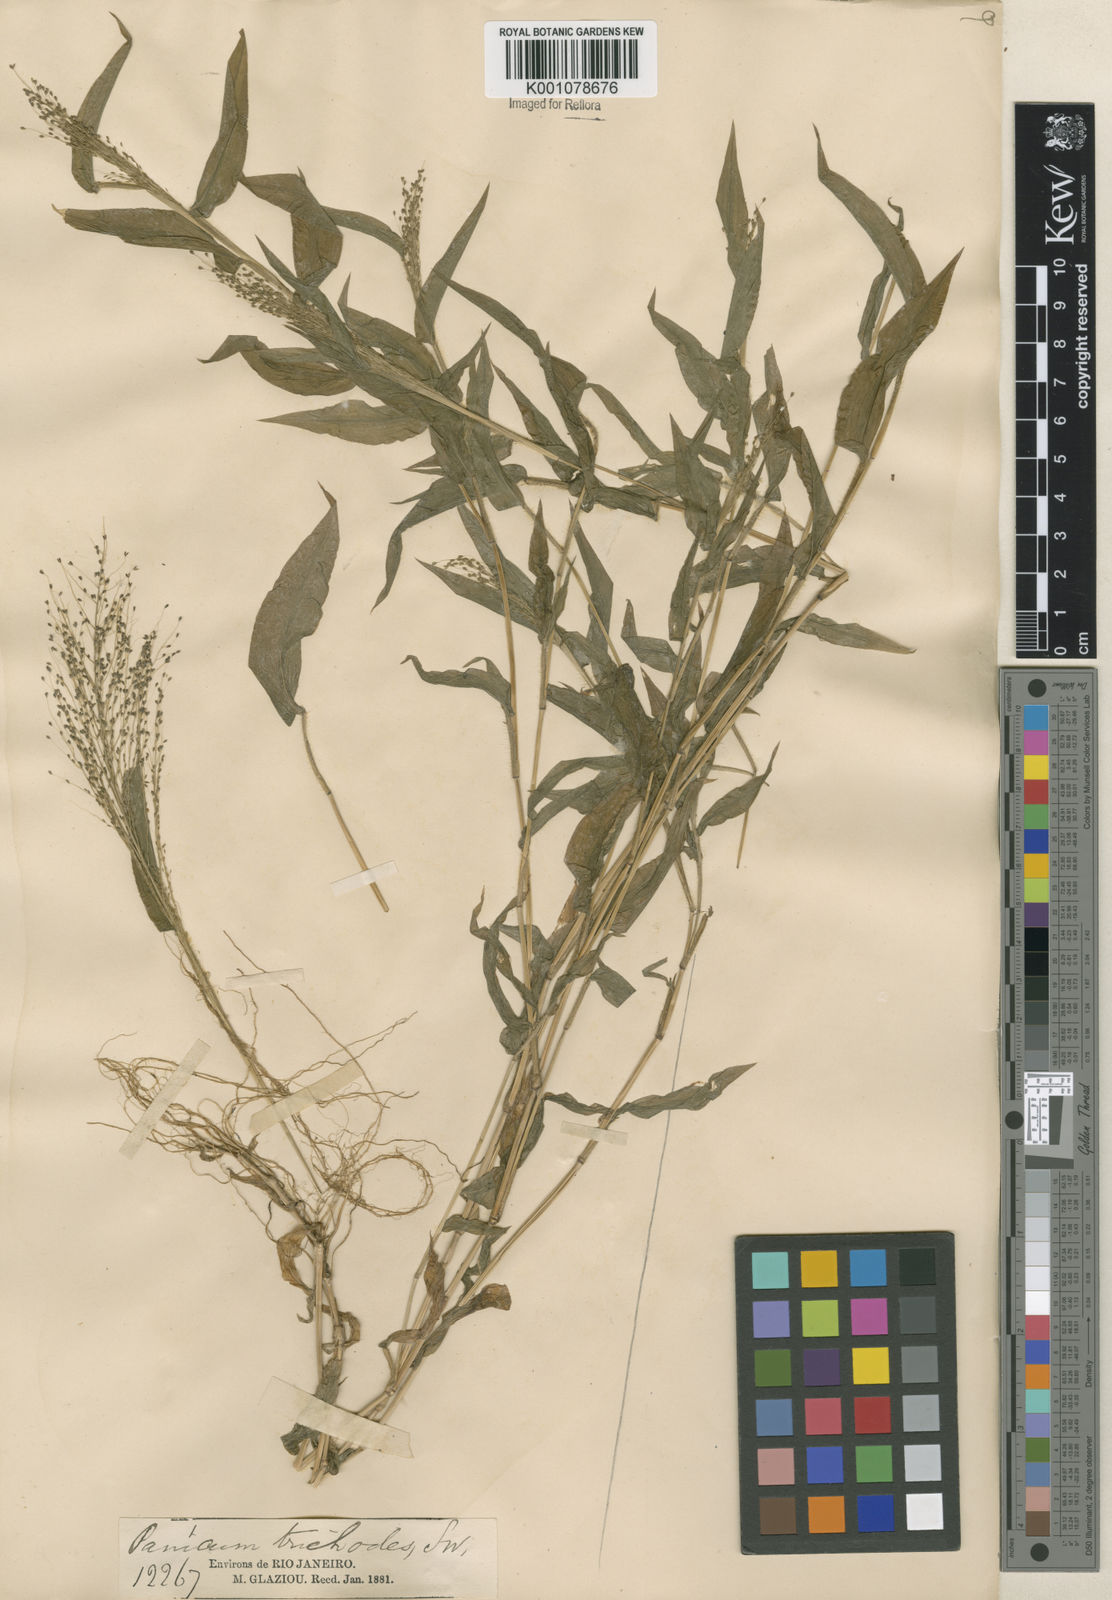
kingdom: Plantae
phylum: Tracheophyta
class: Liliopsida
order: Poales
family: Poaceae
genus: Panicum
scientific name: Panicum trichoides
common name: Tickle grass
